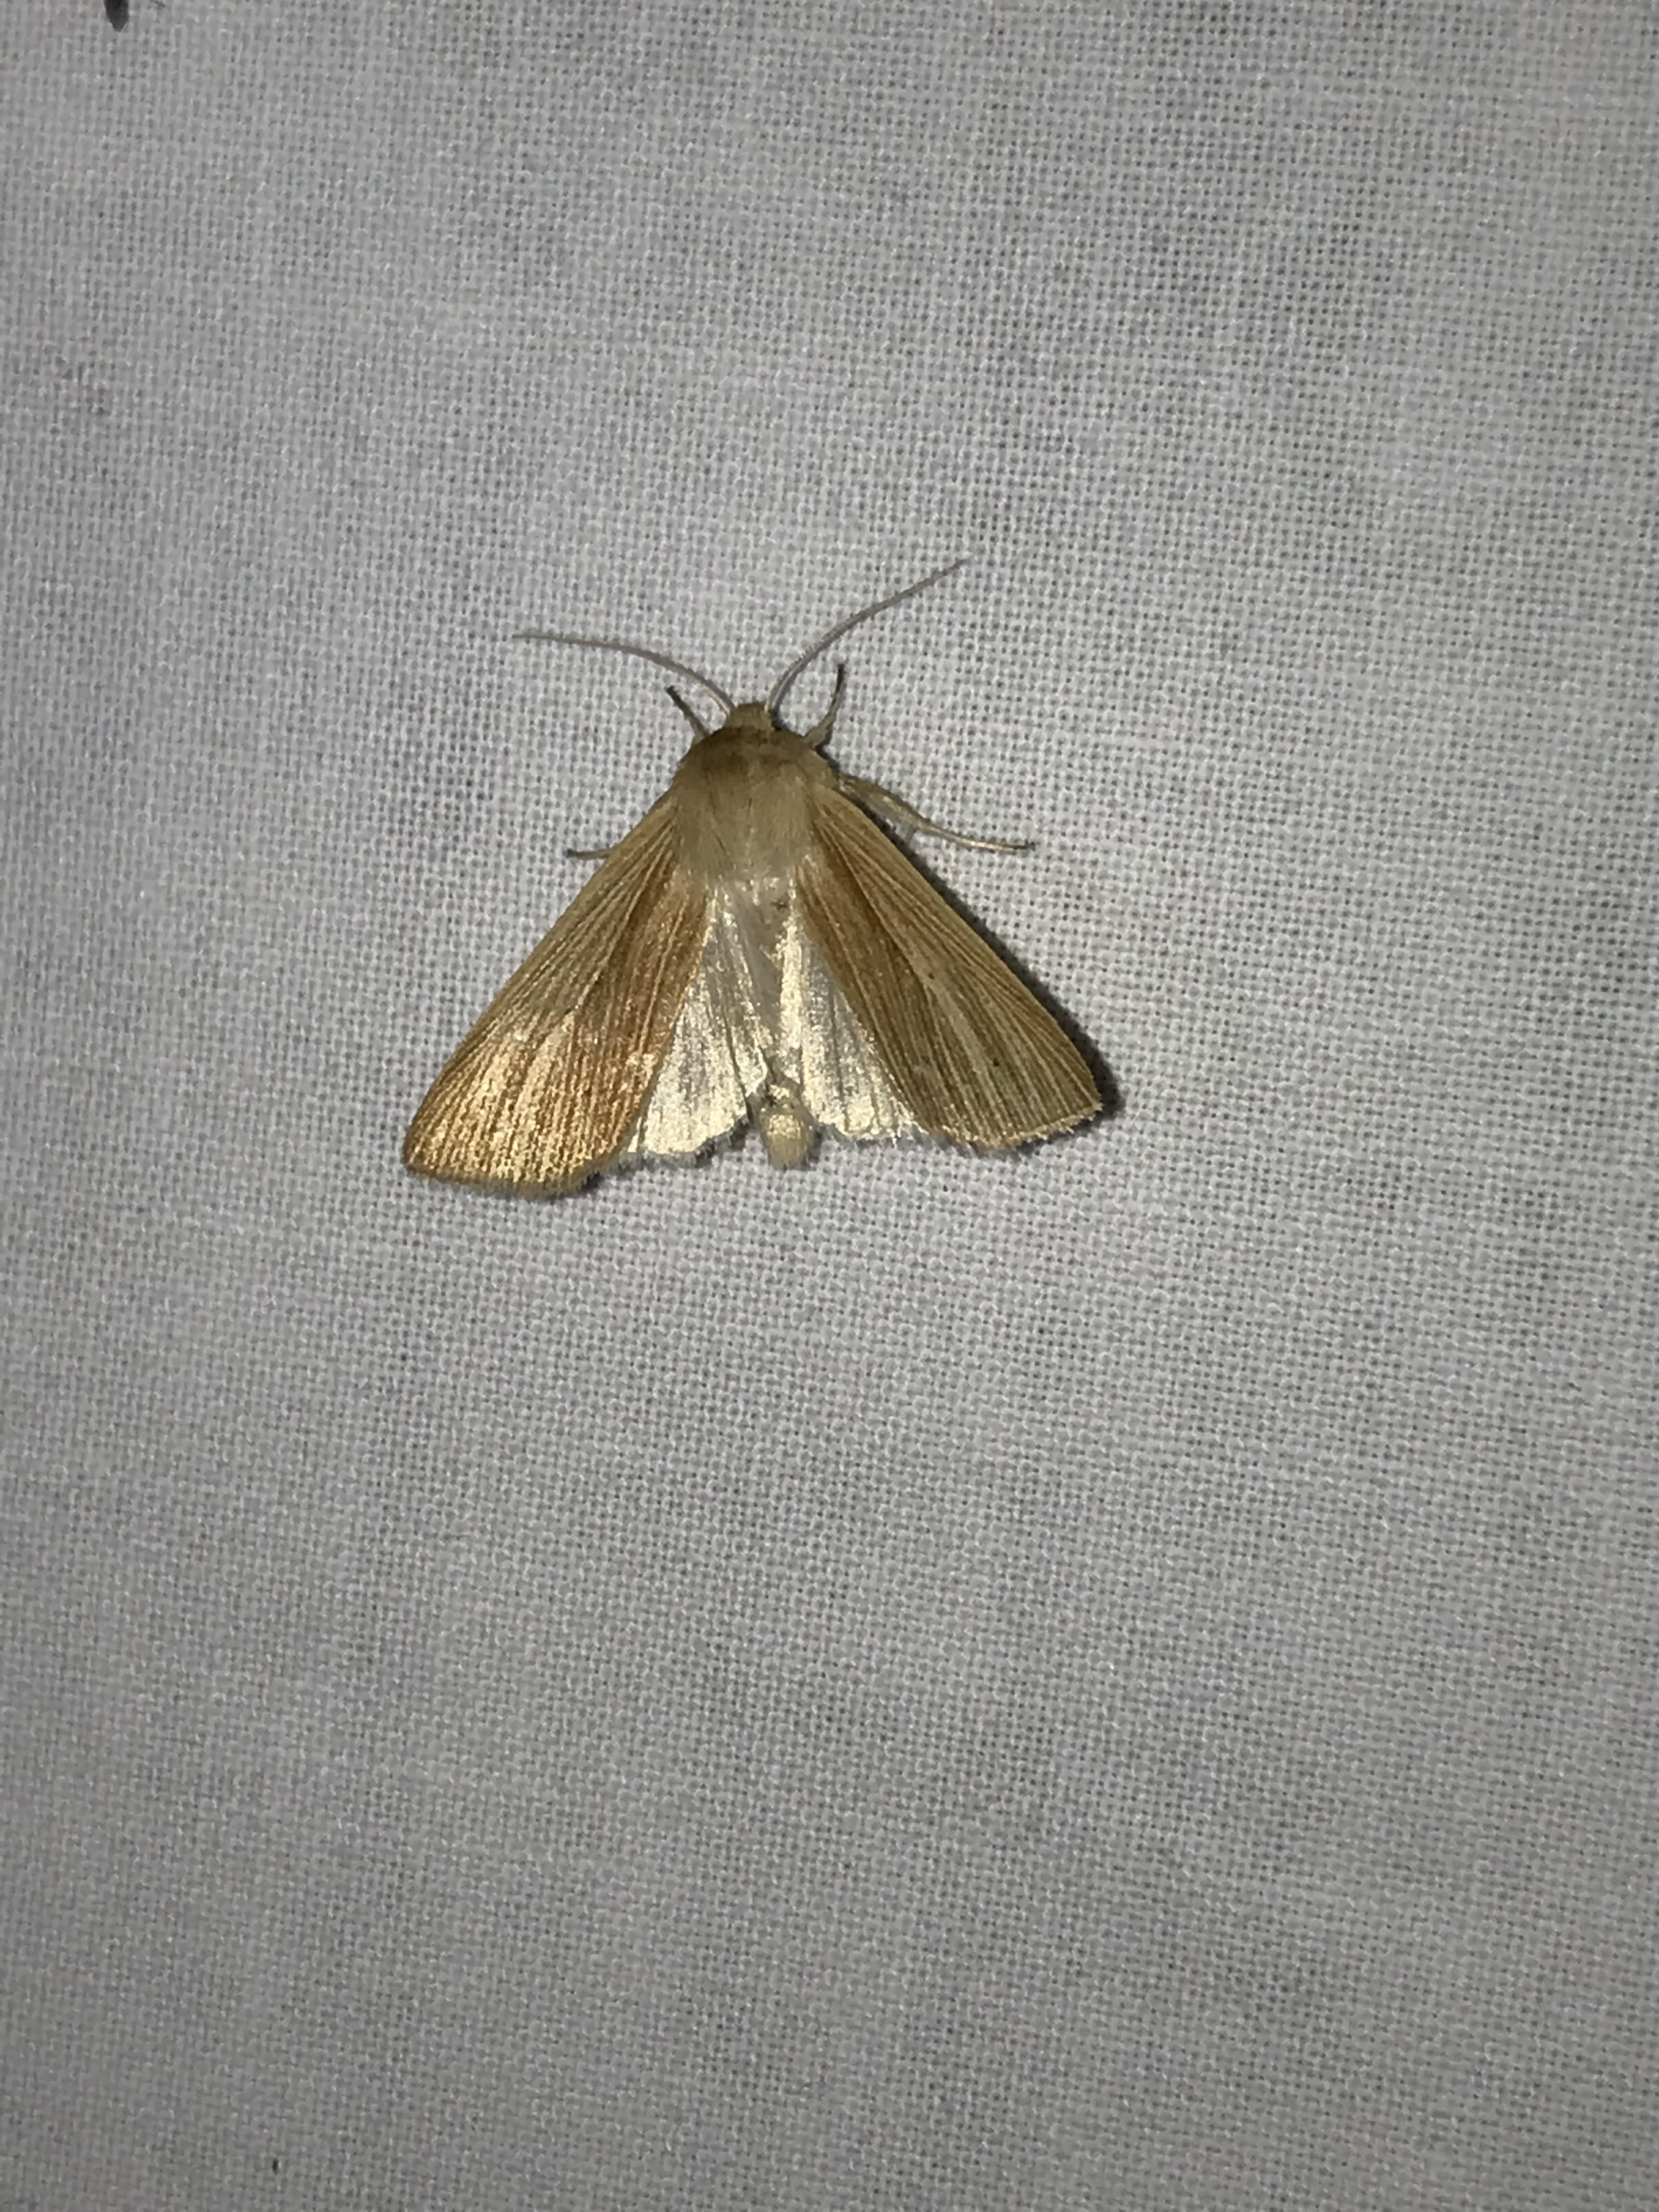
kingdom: Animalia
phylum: Arthropoda
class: Insecta
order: Lepidoptera
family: Noctuidae
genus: Mythimna
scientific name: Mythimna pallens
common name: Halmugle
